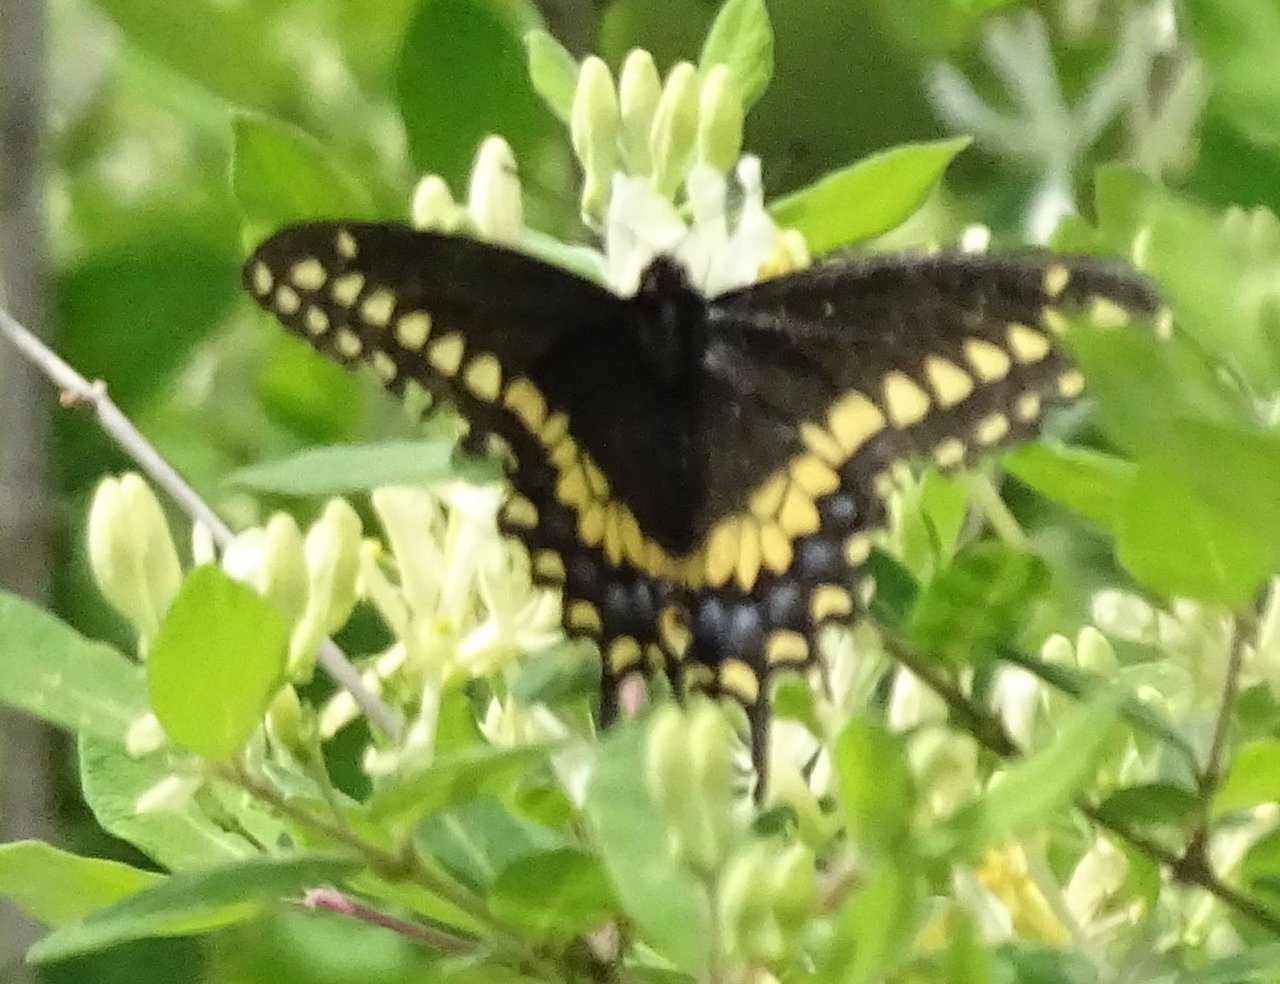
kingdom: Animalia
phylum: Arthropoda
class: Insecta
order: Lepidoptera
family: Papilionidae
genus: Papilio
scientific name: Papilio polyxenes
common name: Black Swallowtail
